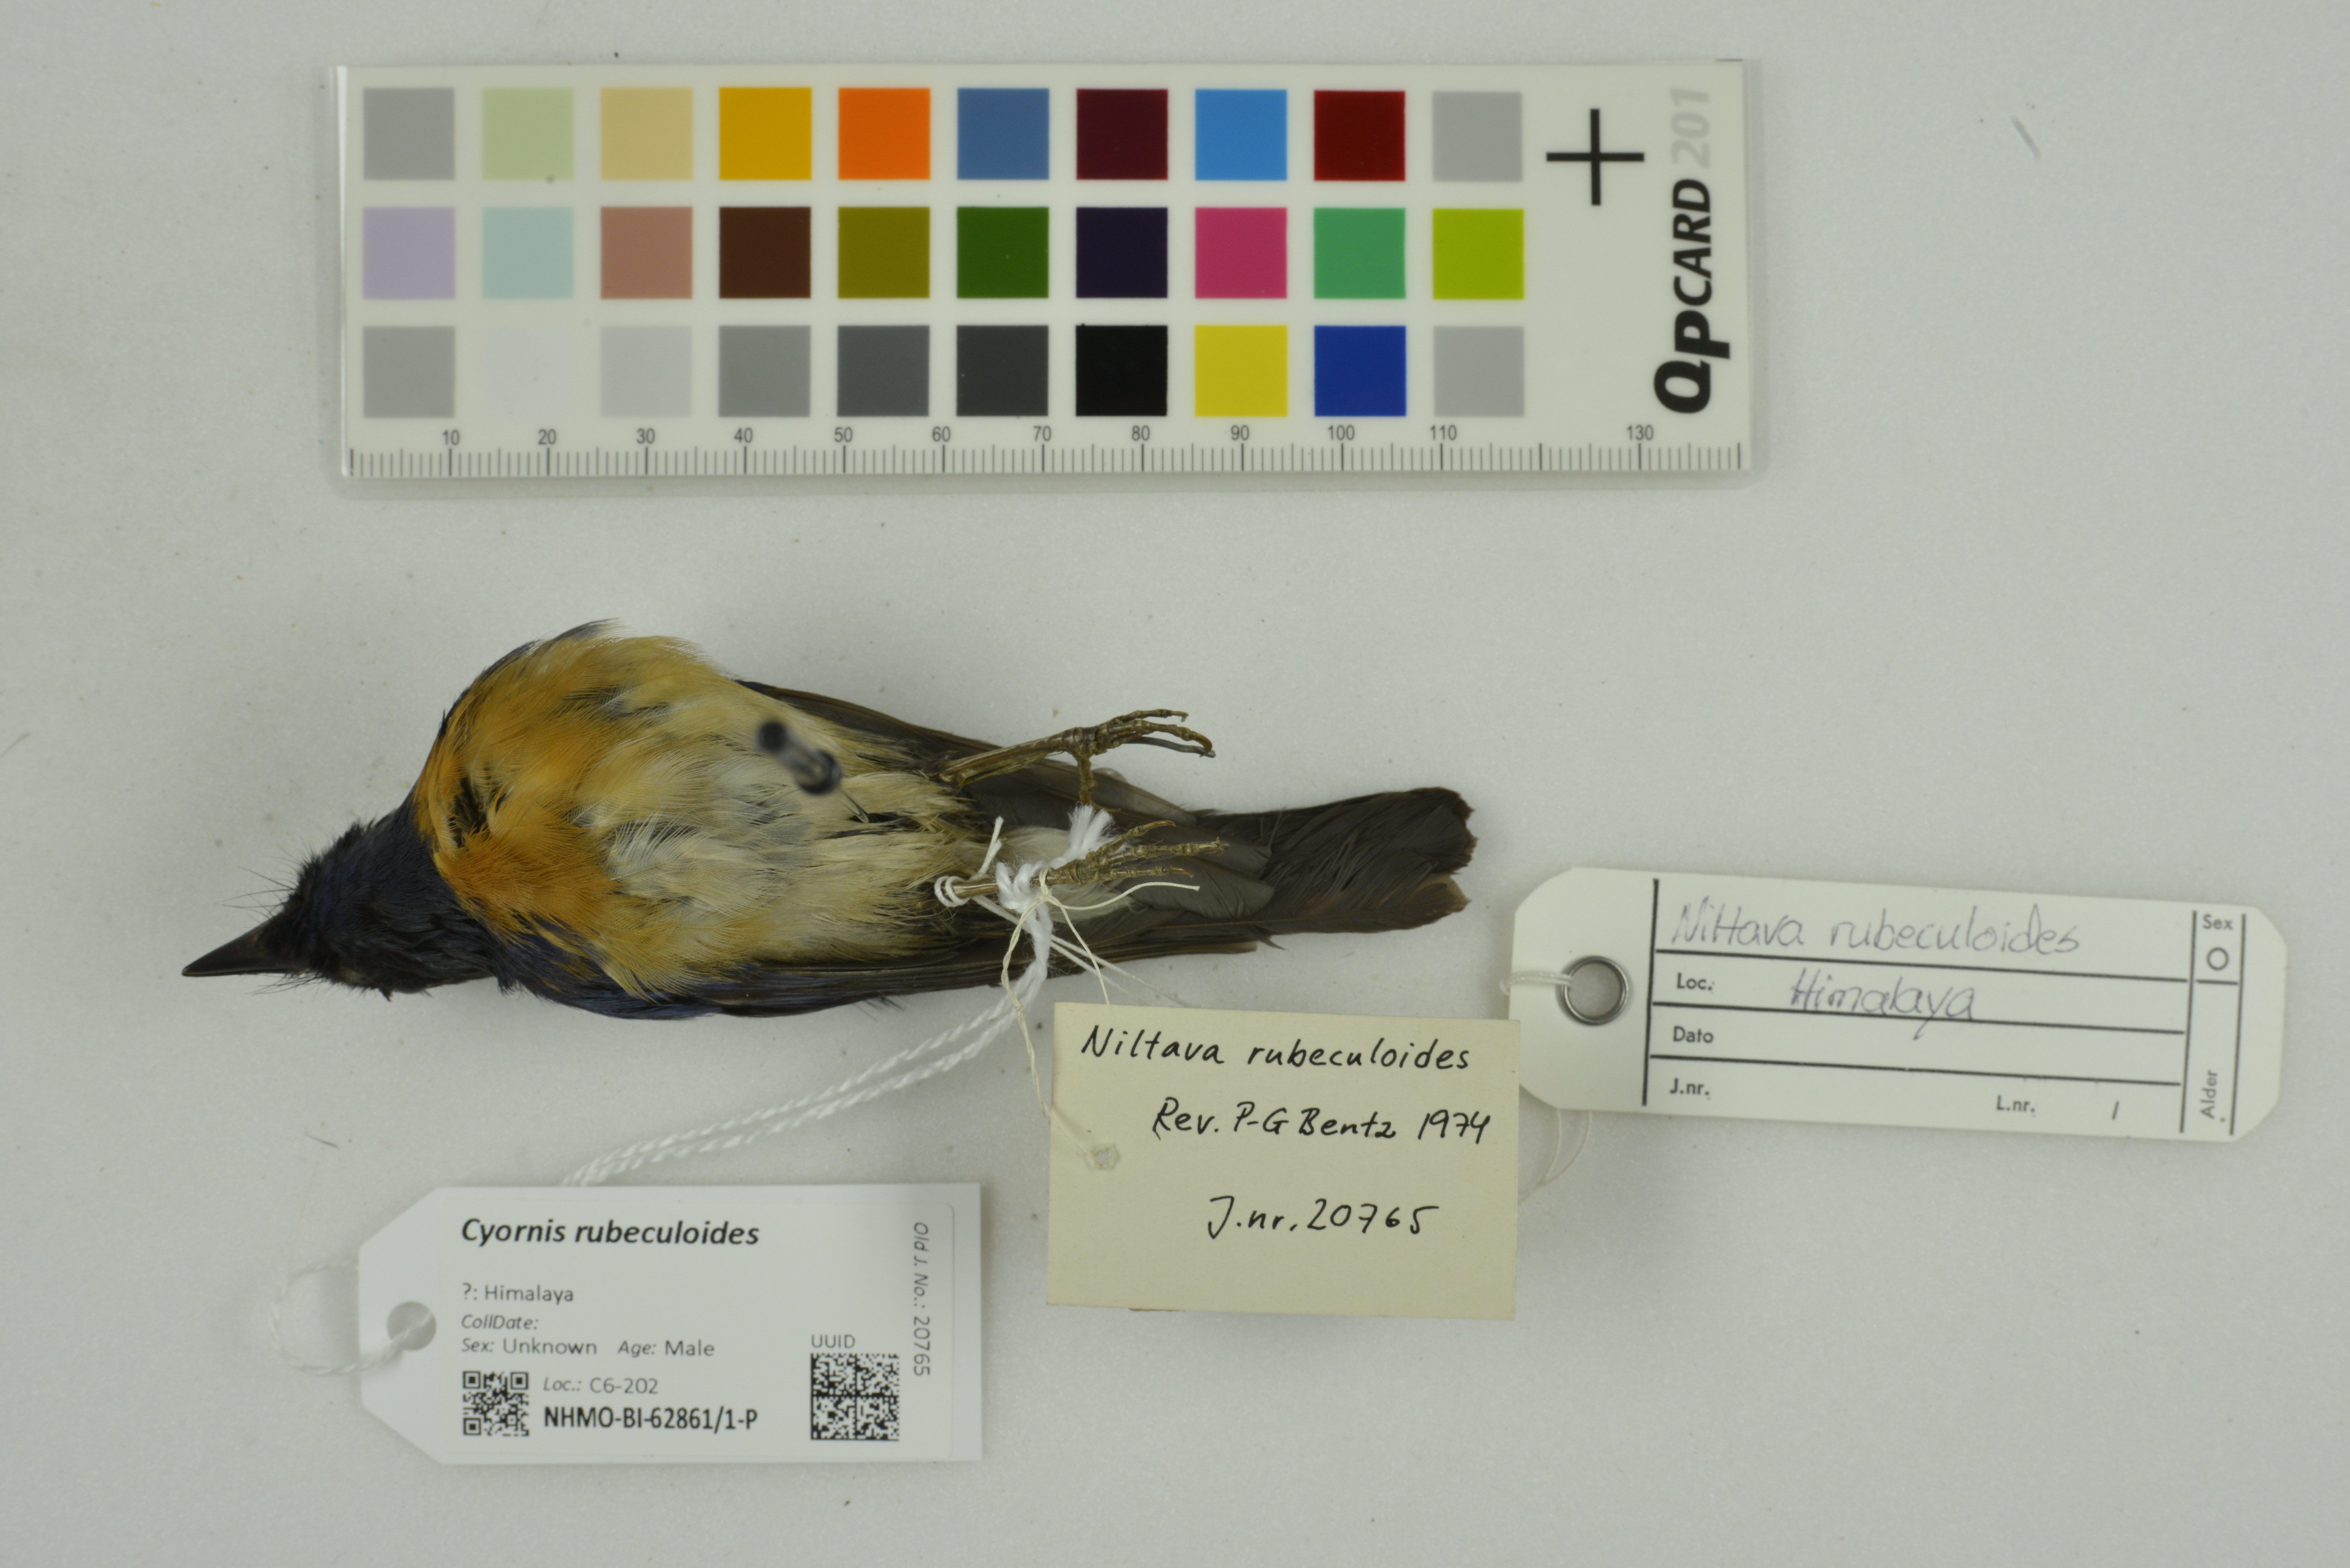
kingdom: Animalia
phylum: Chordata
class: Aves
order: Passeriformes
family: Muscicapidae
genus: Cyornis
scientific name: Cyornis rubeculoides
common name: Blue-throated blue flycatcher
